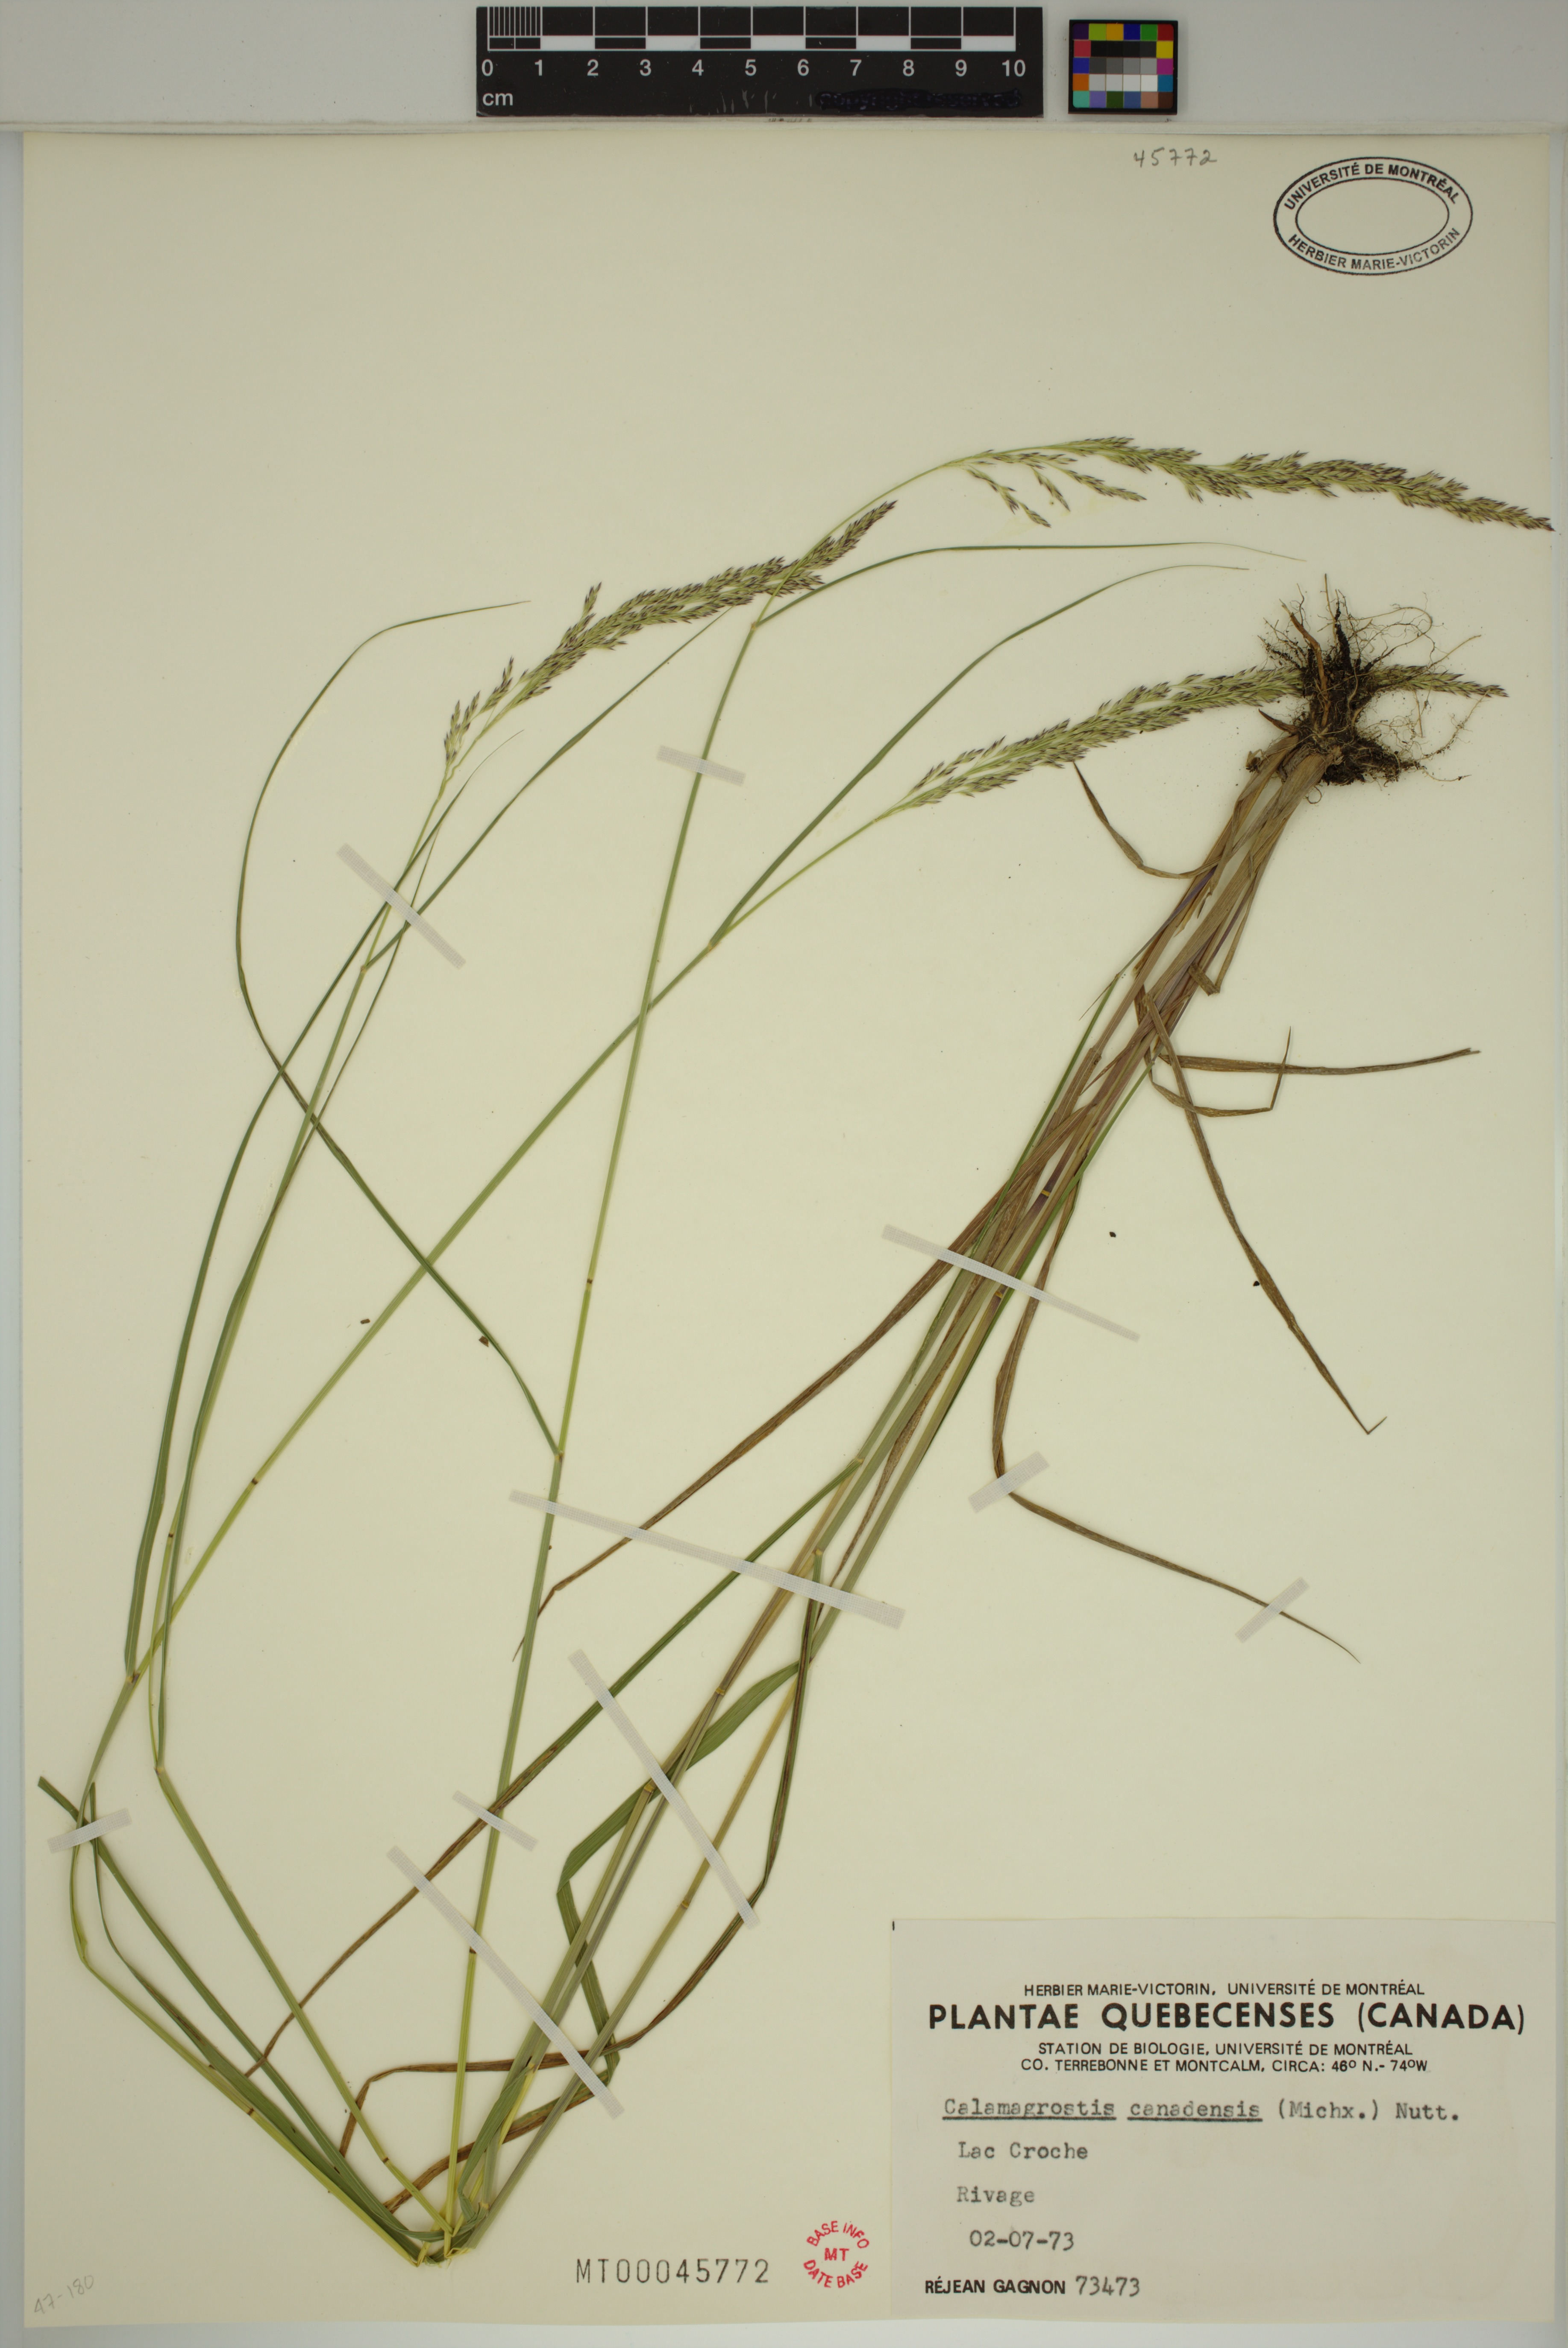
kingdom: Plantae
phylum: Tracheophyta
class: Liliopsida
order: Poales
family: Poaceae
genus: Calamagrostis
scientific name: Calamagrostis canadensis
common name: Canada bluejoint
